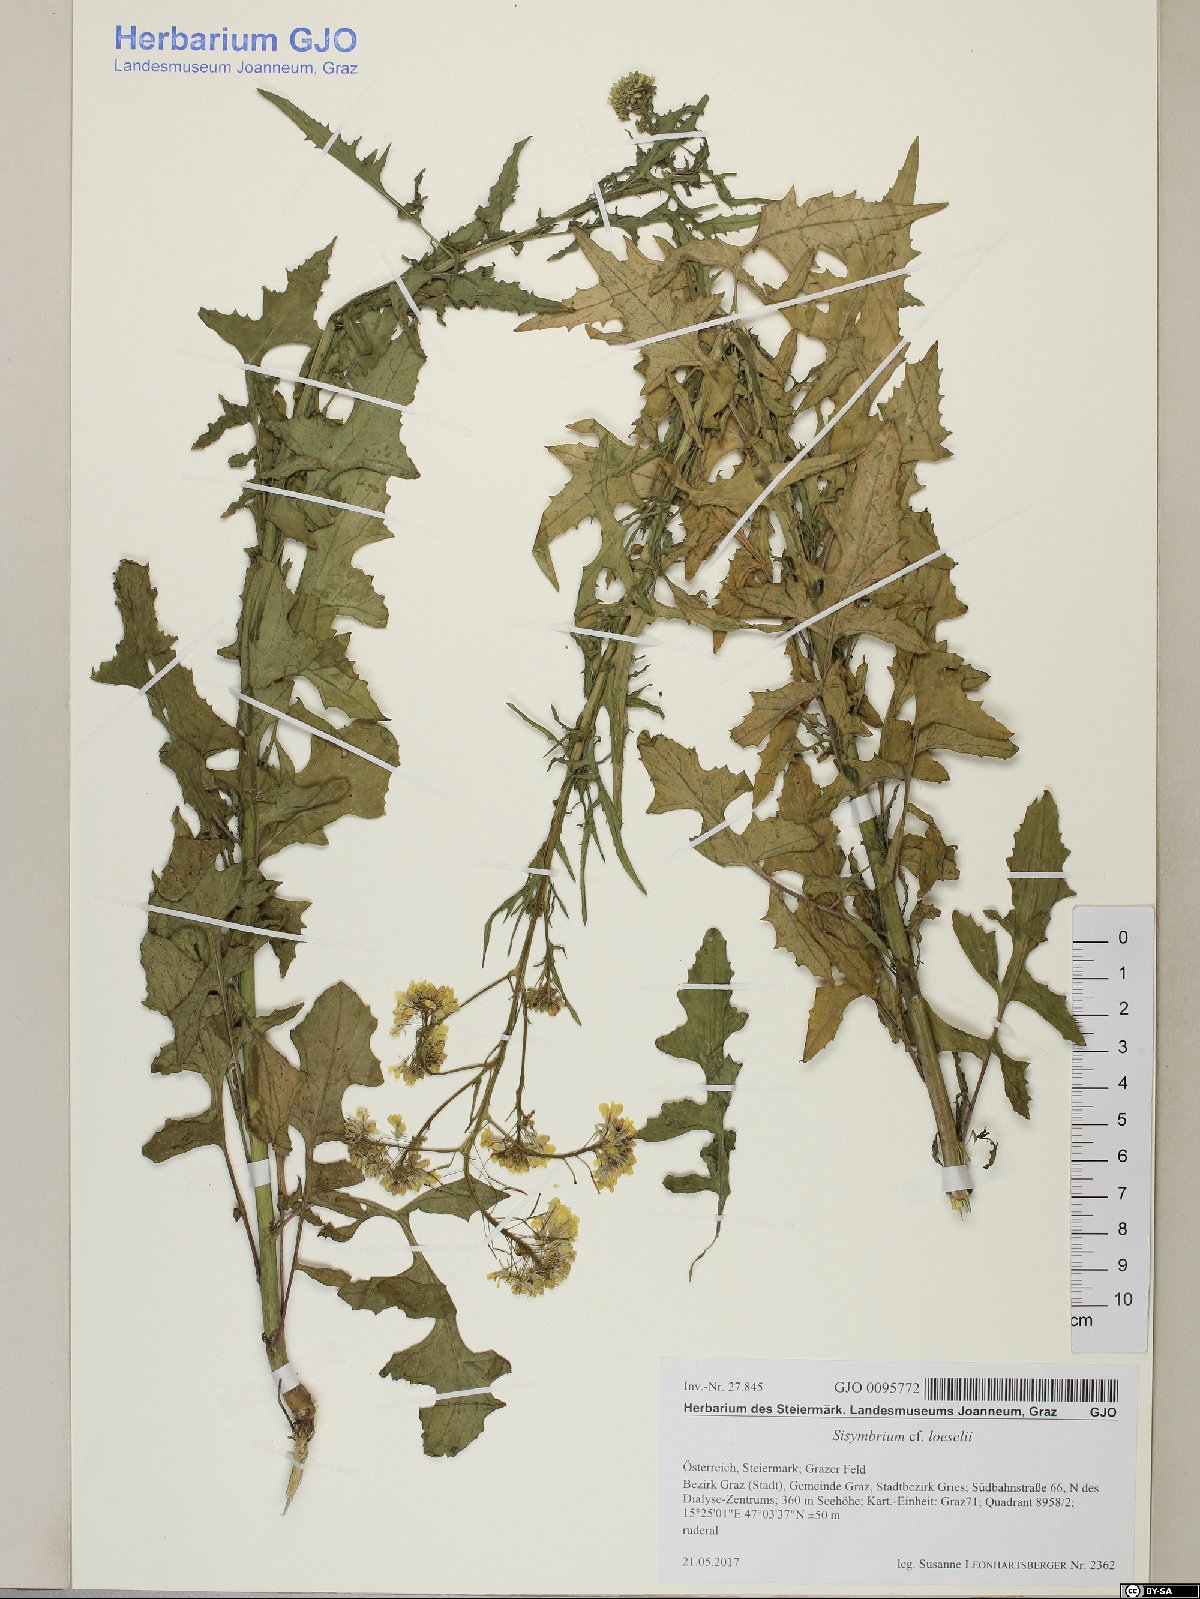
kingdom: Plantae
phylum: Tracheophyta
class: Magnoliopsida
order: Brassicales
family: Brassicaceae
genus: Sisymbrium
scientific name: Sisymbrium loeselii
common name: False london-rocket
